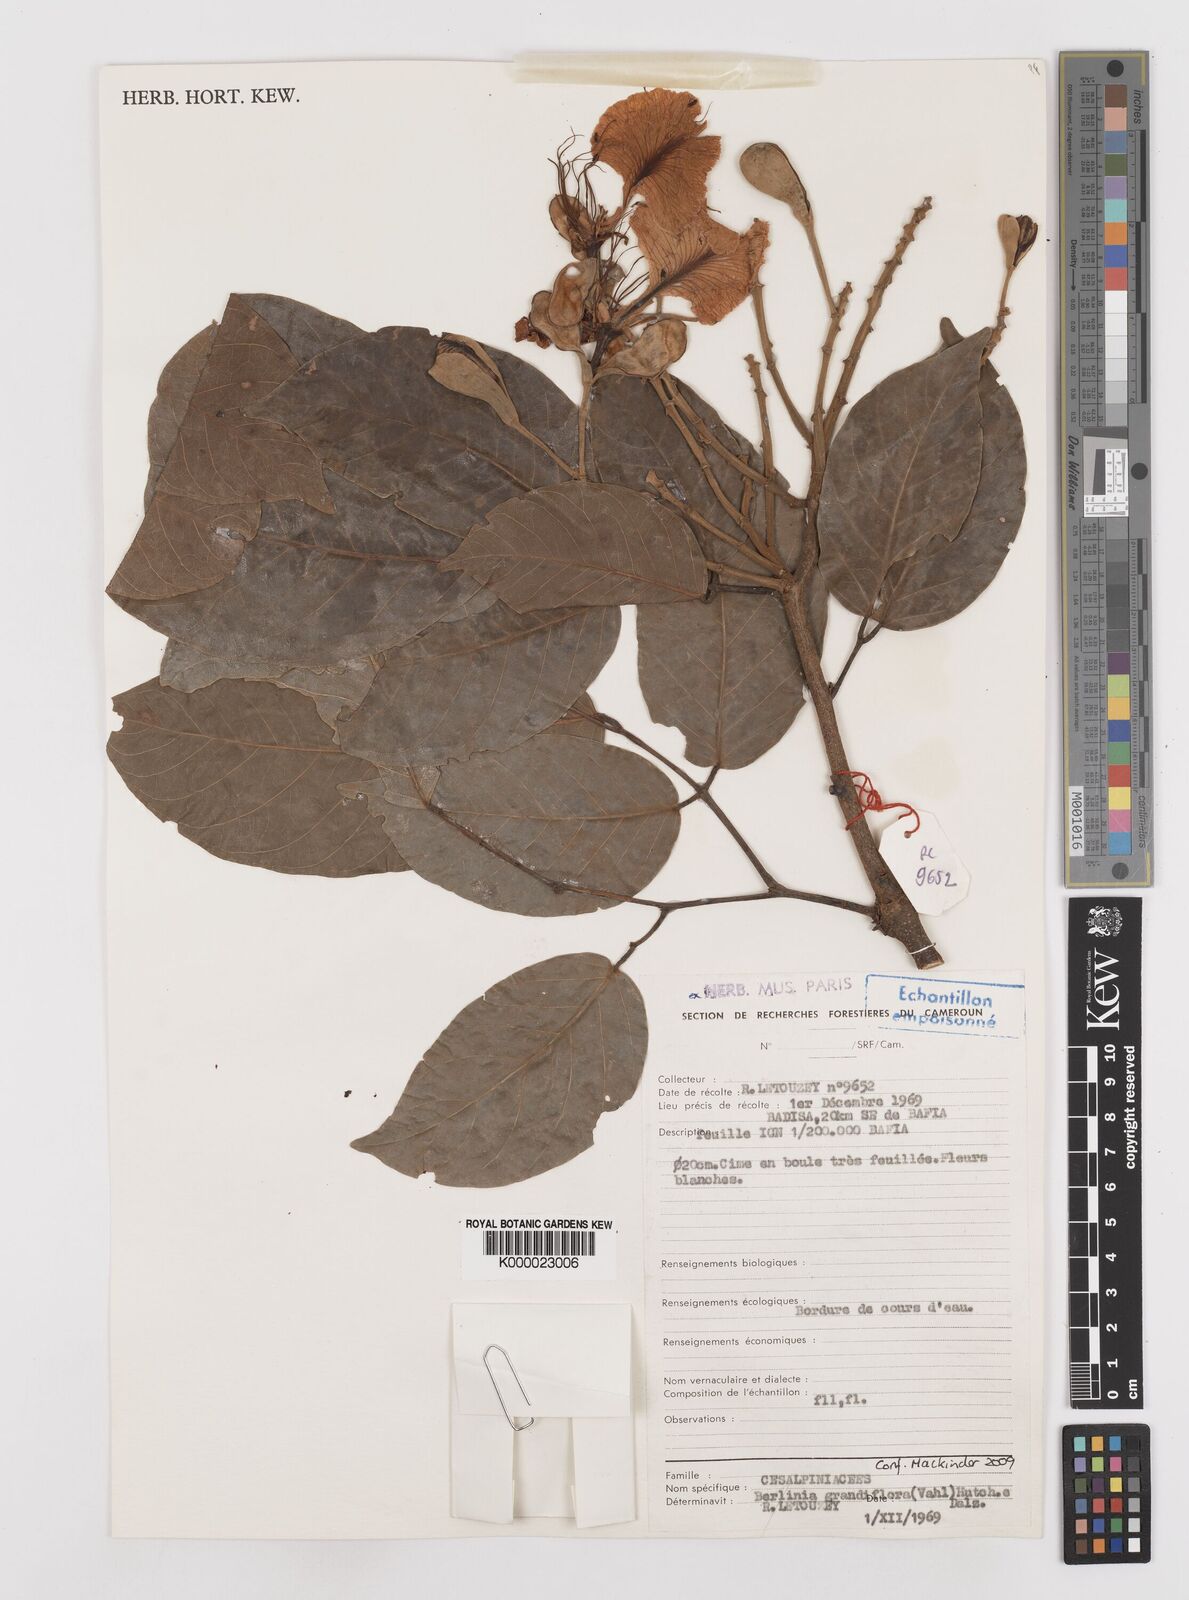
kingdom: Plantae
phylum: Tracheophyta
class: Magnoliopsida
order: Fabales
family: Fabaceae
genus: Berlinia
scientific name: Berlinia grandiflora
